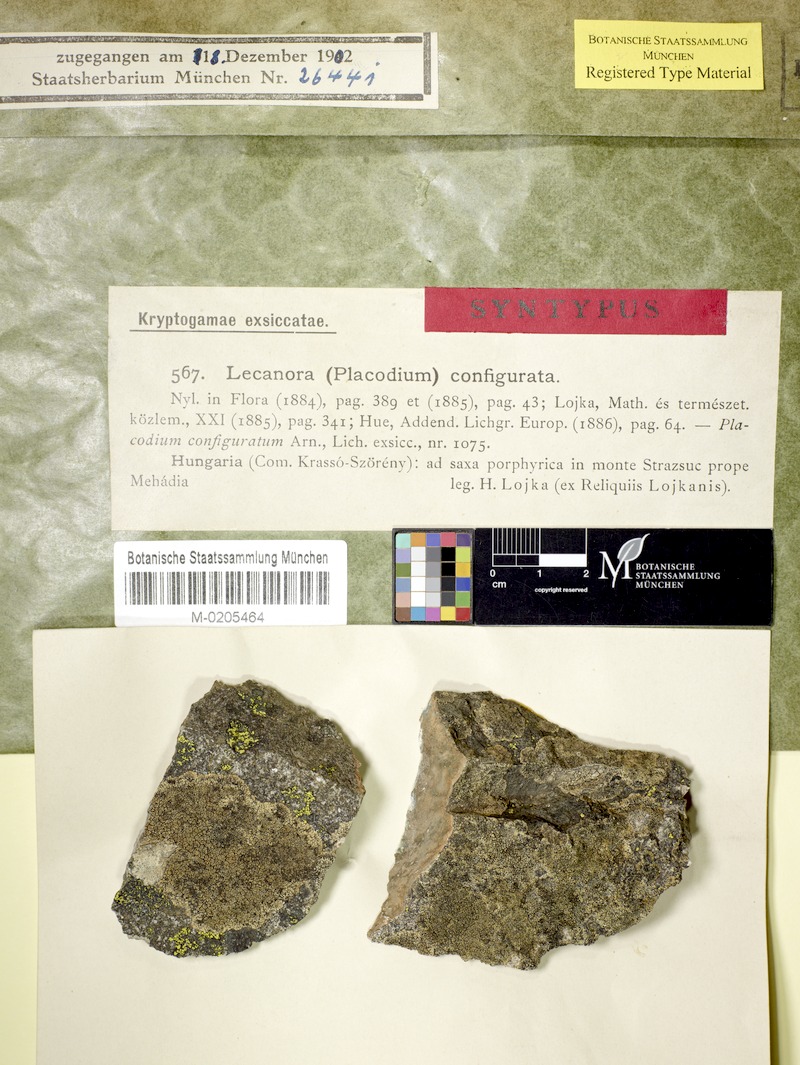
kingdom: Fungi
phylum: Ascomycota
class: Lecanoromycetes
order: Lecanorales
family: Lecanoraceae
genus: Lecanora
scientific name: Lecanora configurata
